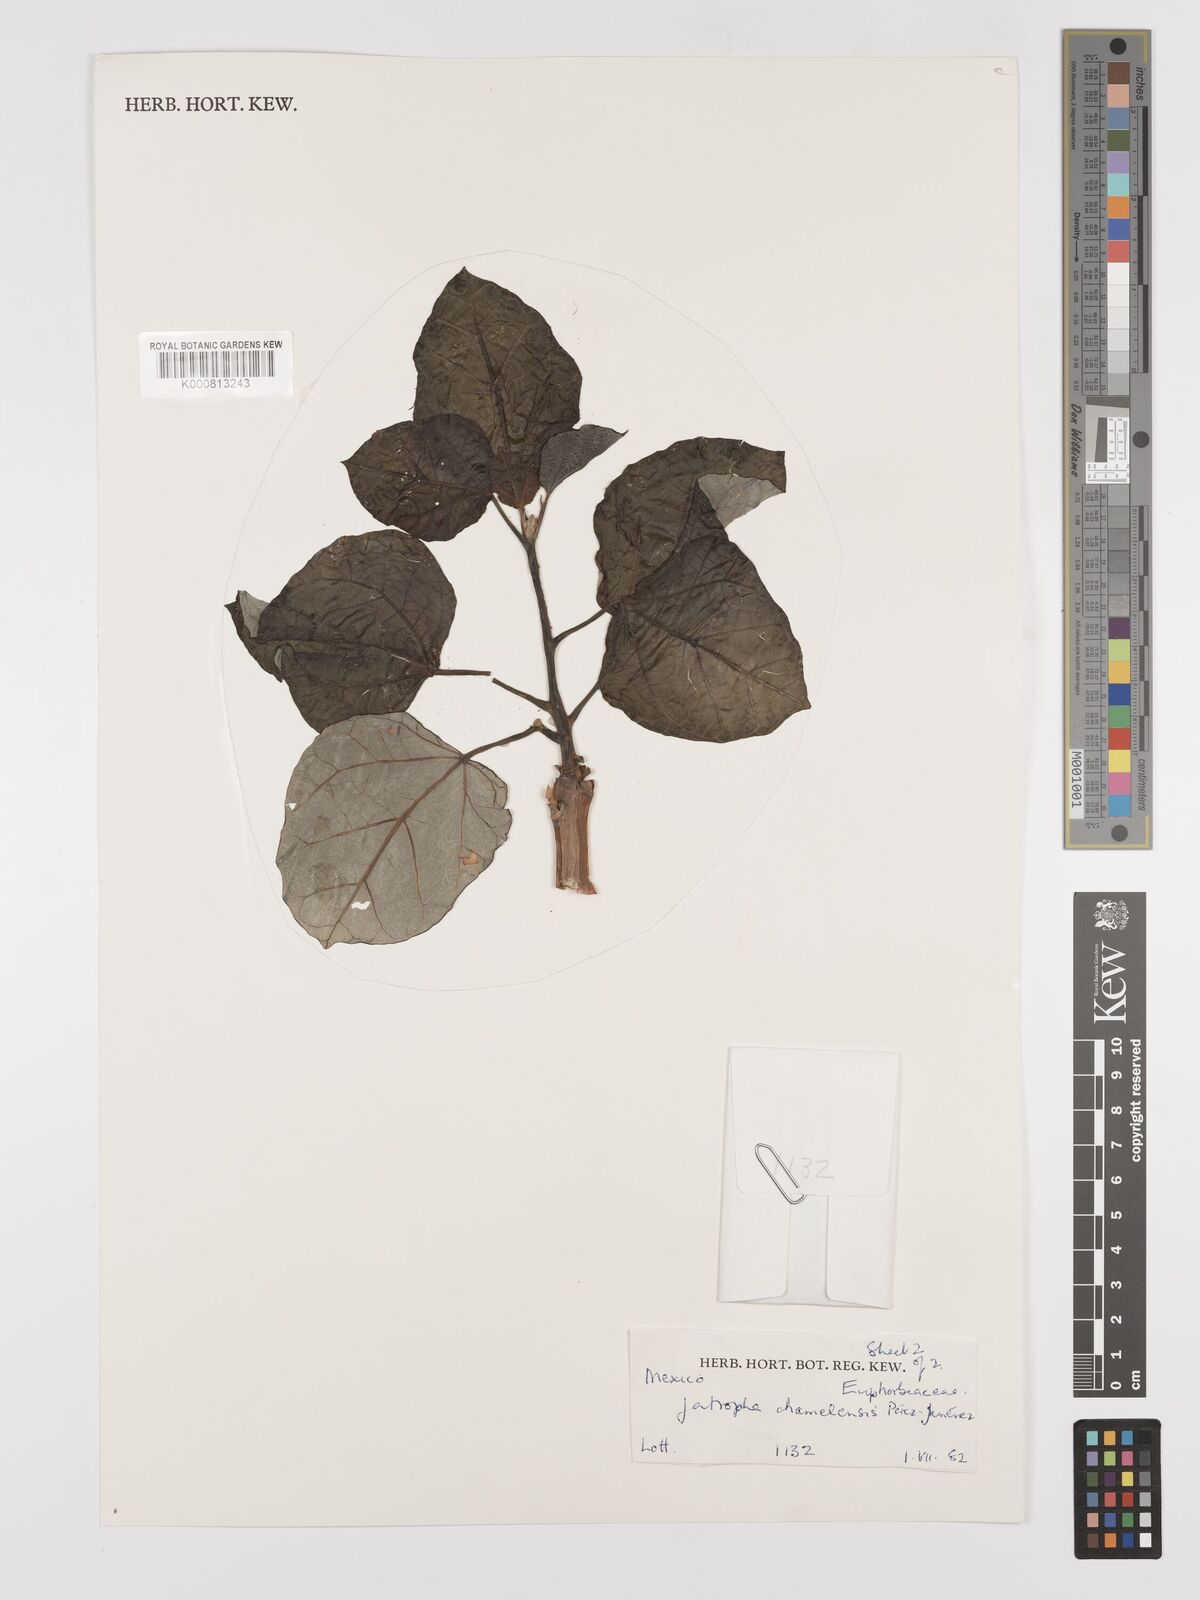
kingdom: Plantae
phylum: Tracheophyta
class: Magnoliopsida
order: Malpighiales
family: Euphorbiaceae
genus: Jatropha
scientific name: Jatropha
